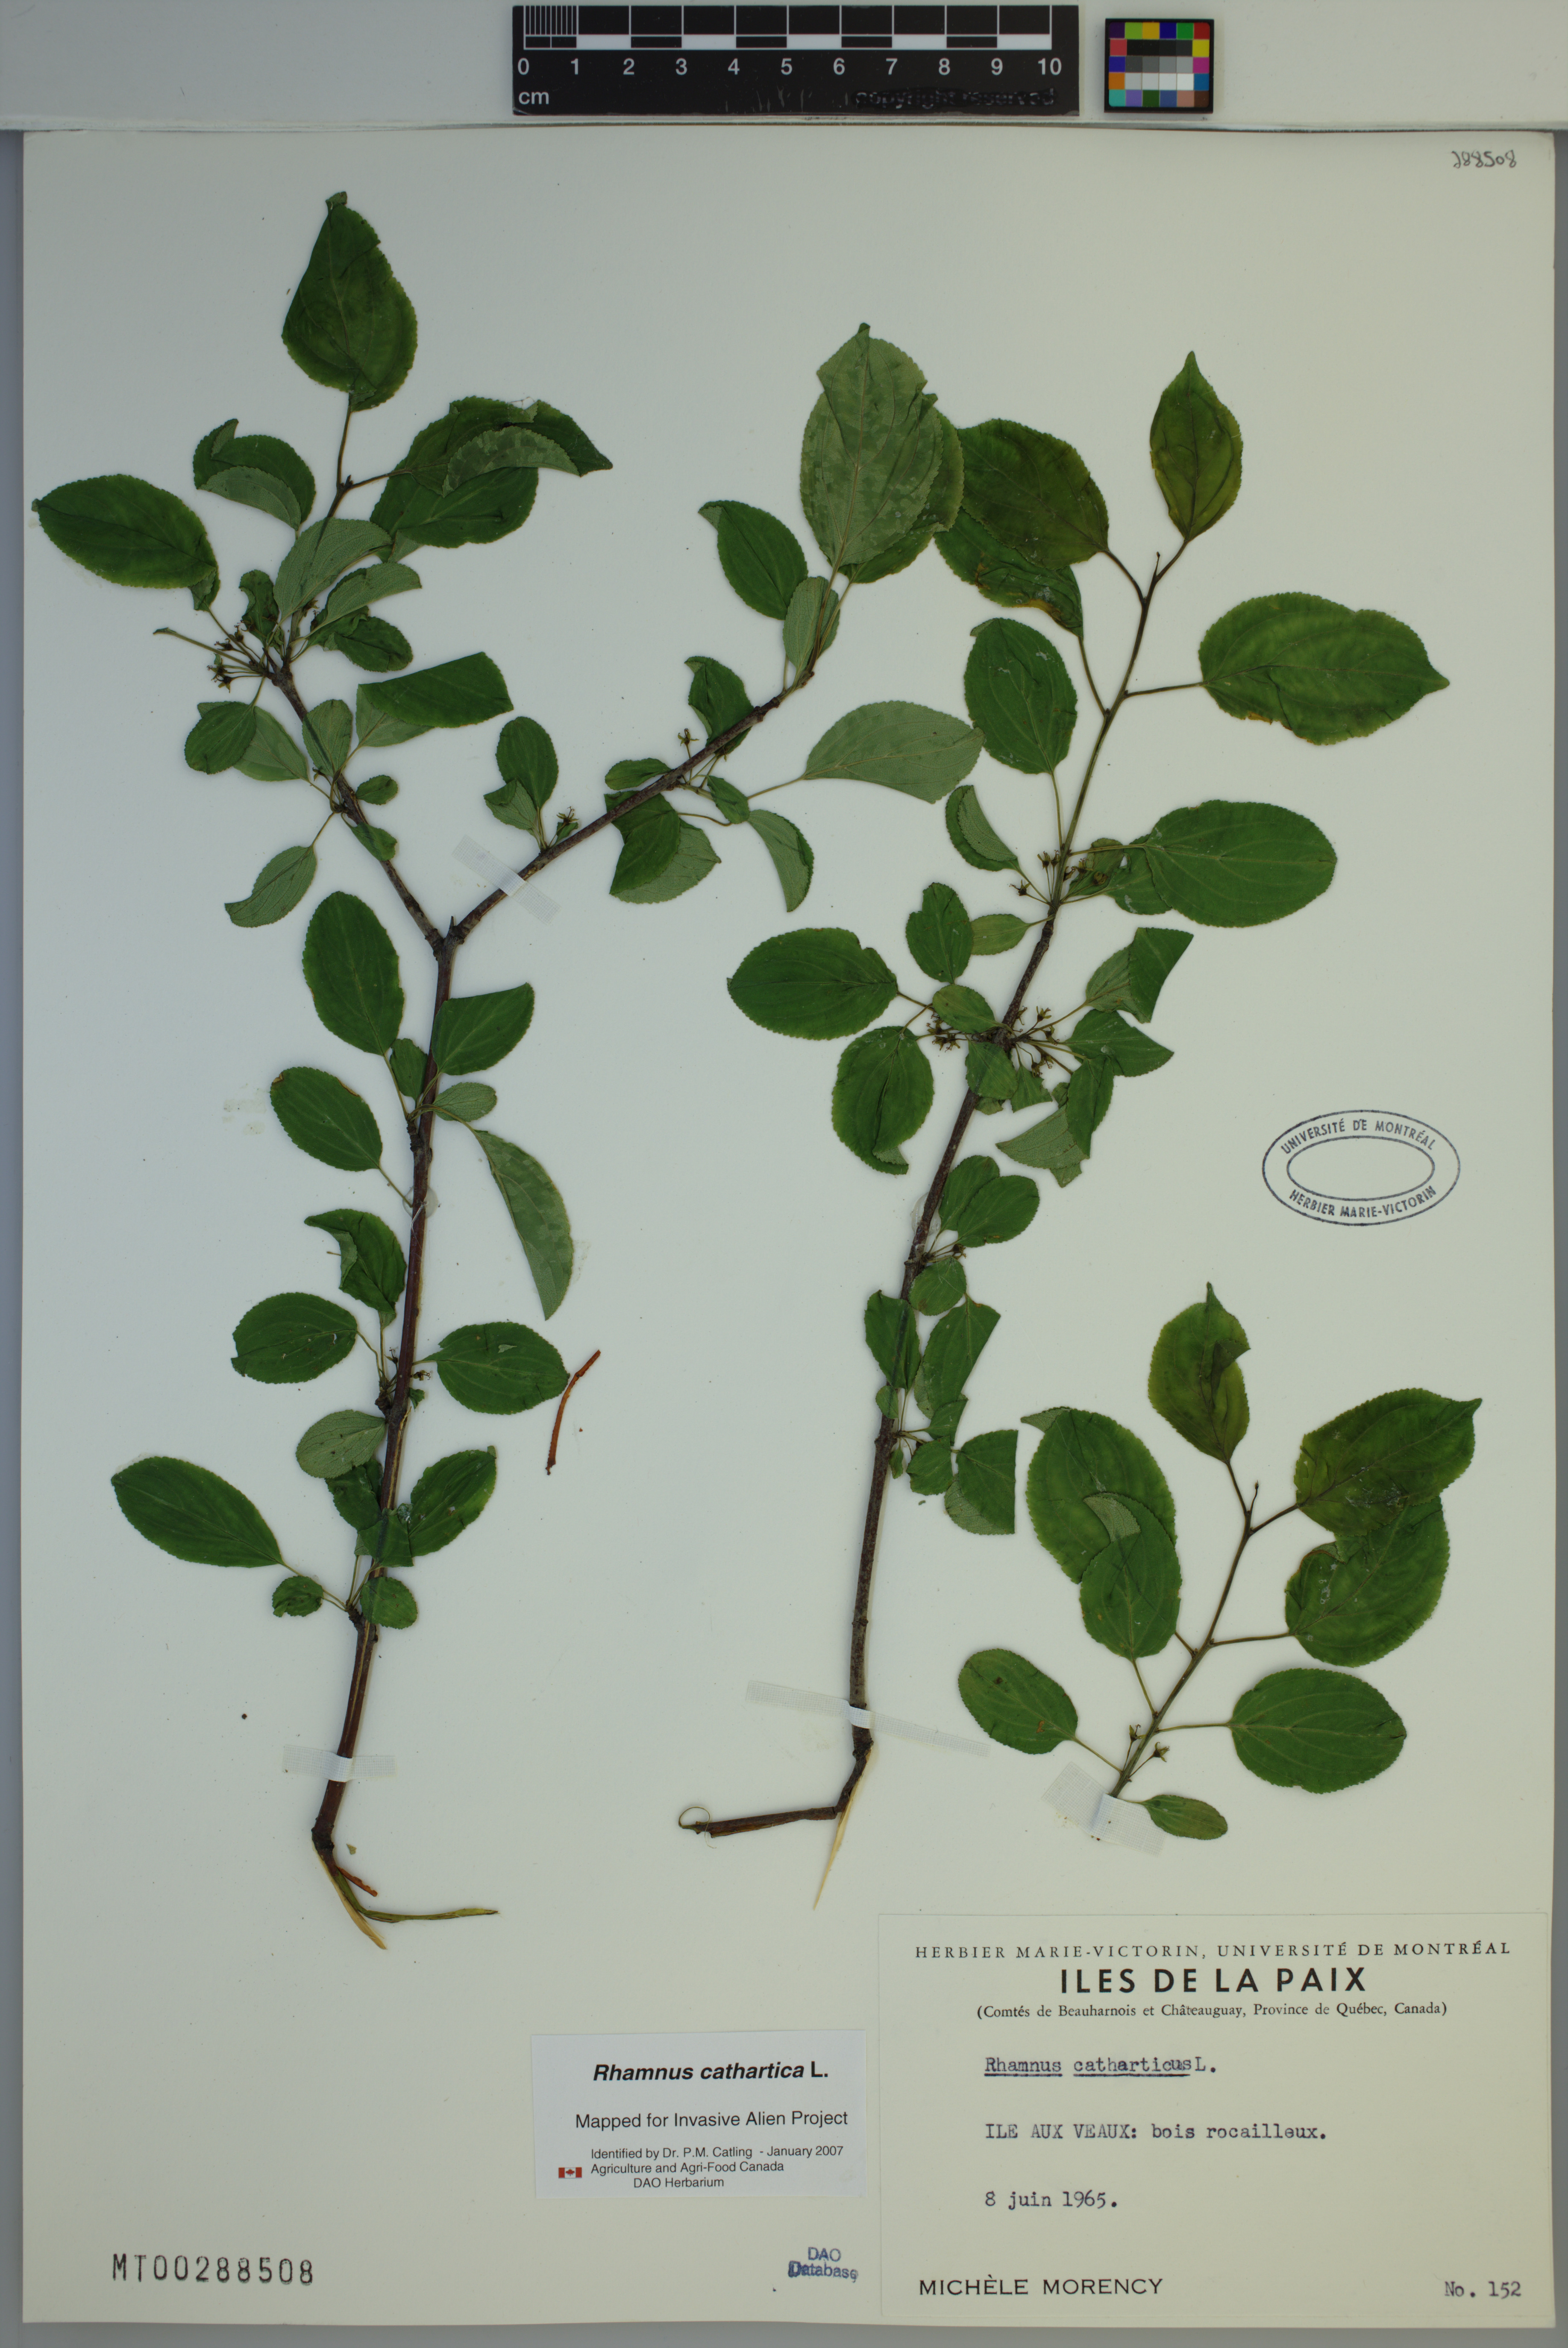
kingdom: Plantae
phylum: Tracheophyta
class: Magnoliopsida
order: Rosales
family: Rhamnaceae
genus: Rhamnus
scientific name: Rhamnus cathartica
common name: Common buckthorn
